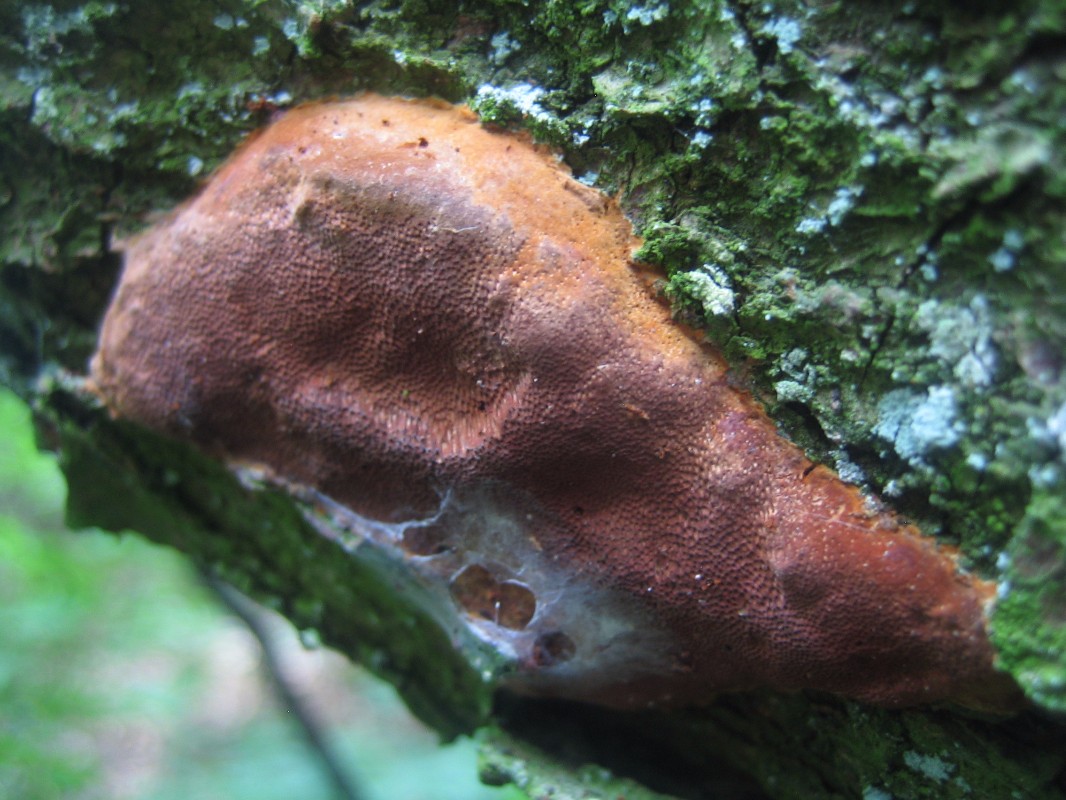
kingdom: Fungi
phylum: Basidiomycota
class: Agaricomycetes
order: Hymenochaetales
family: Hymenochaetaceae
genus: Phellinus
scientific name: Phellinus pomaceus
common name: blomme-ildporesvamp
